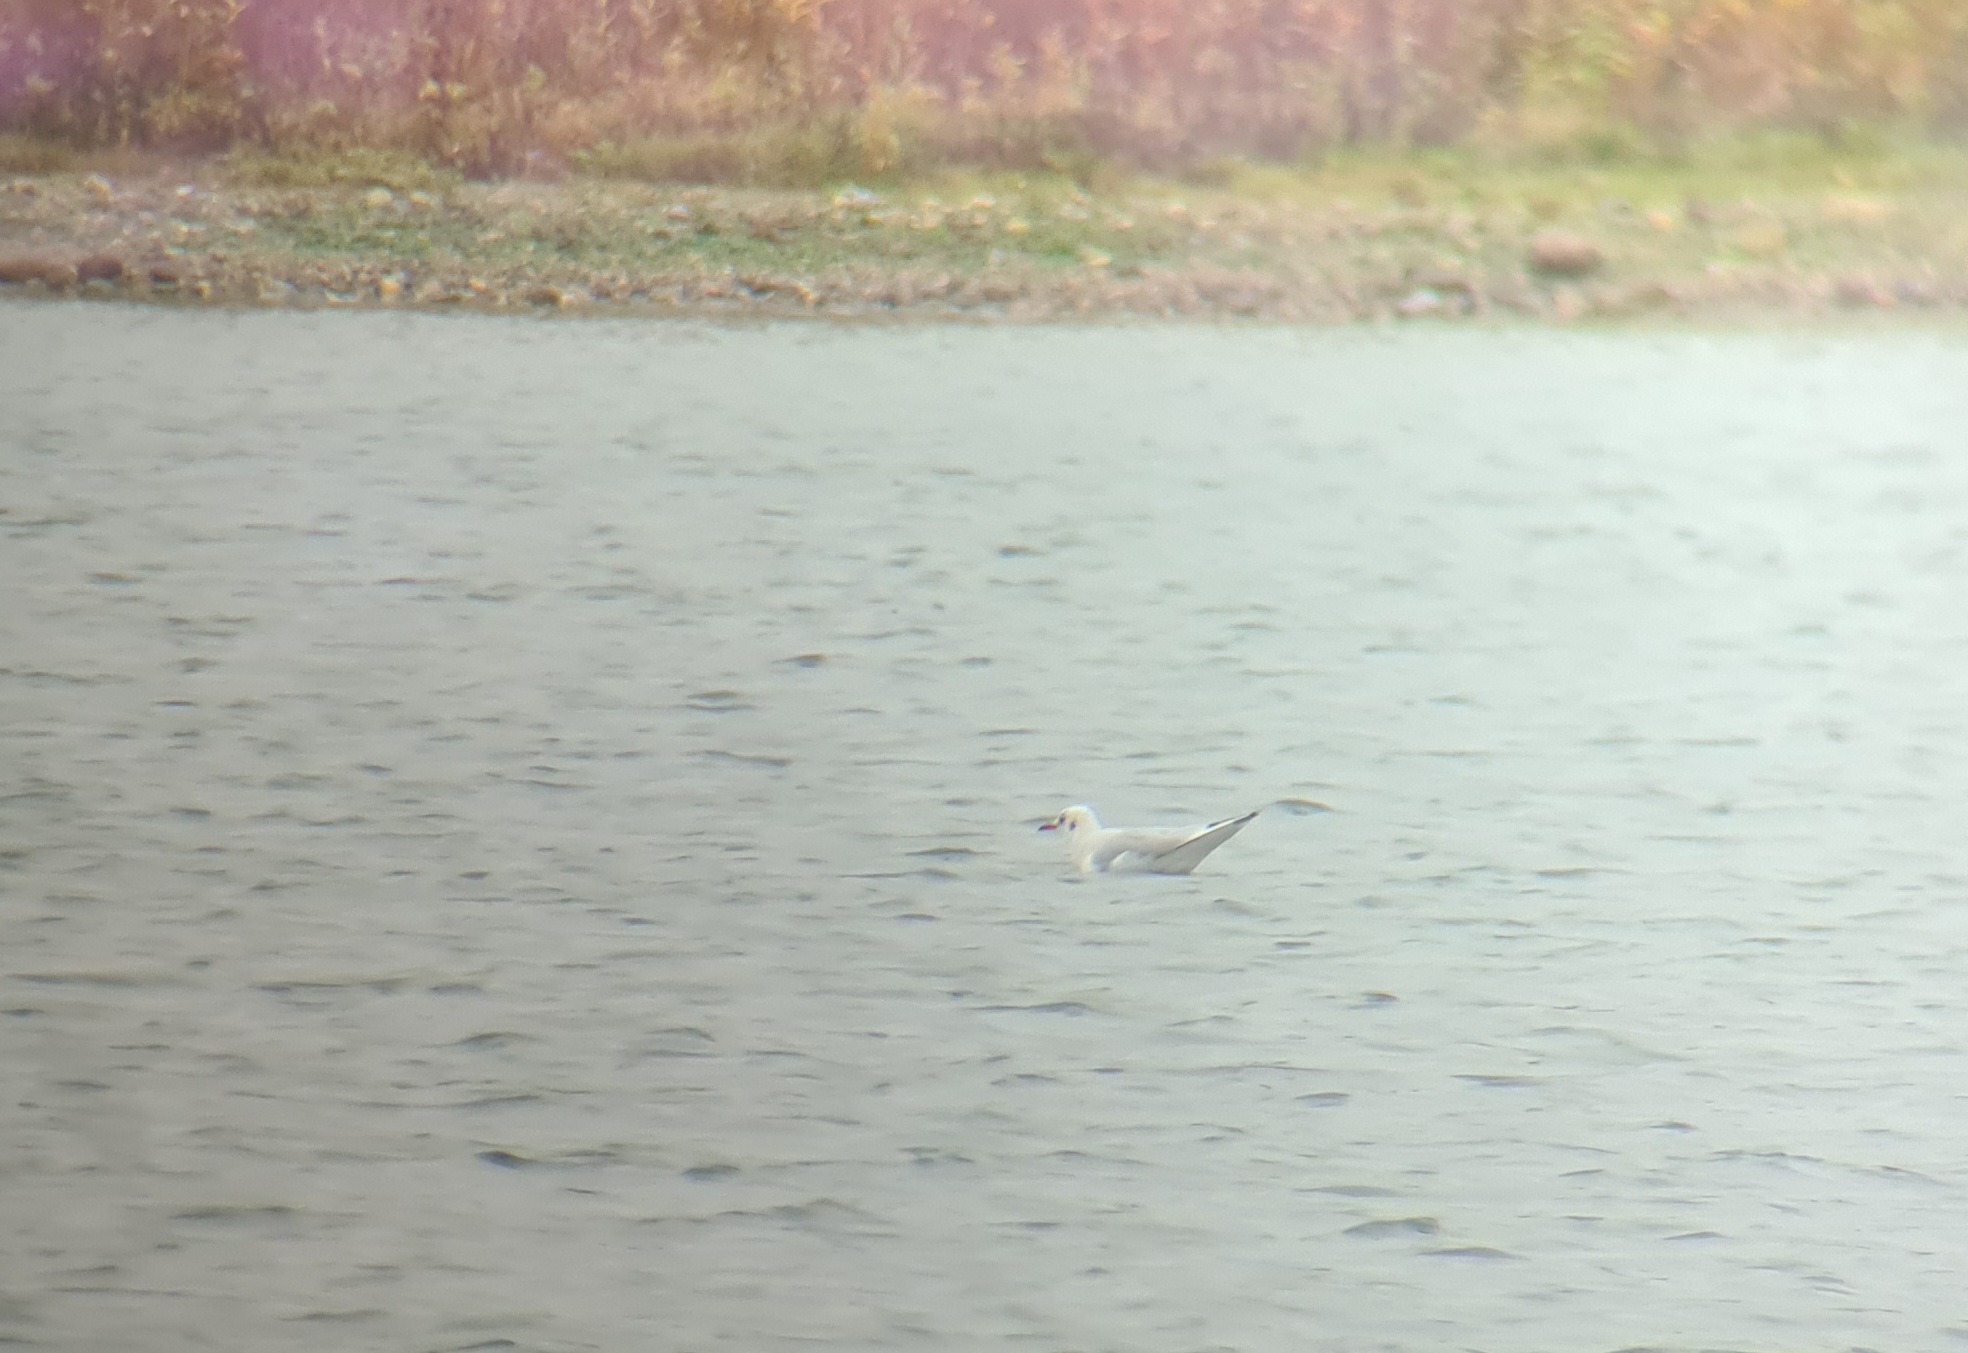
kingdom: Animalia
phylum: Chordata
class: Aves
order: Charadriiformes
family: Laridae
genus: Chroicocephalus
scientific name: Chroicocephalus ridibundus
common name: Hættemåge
